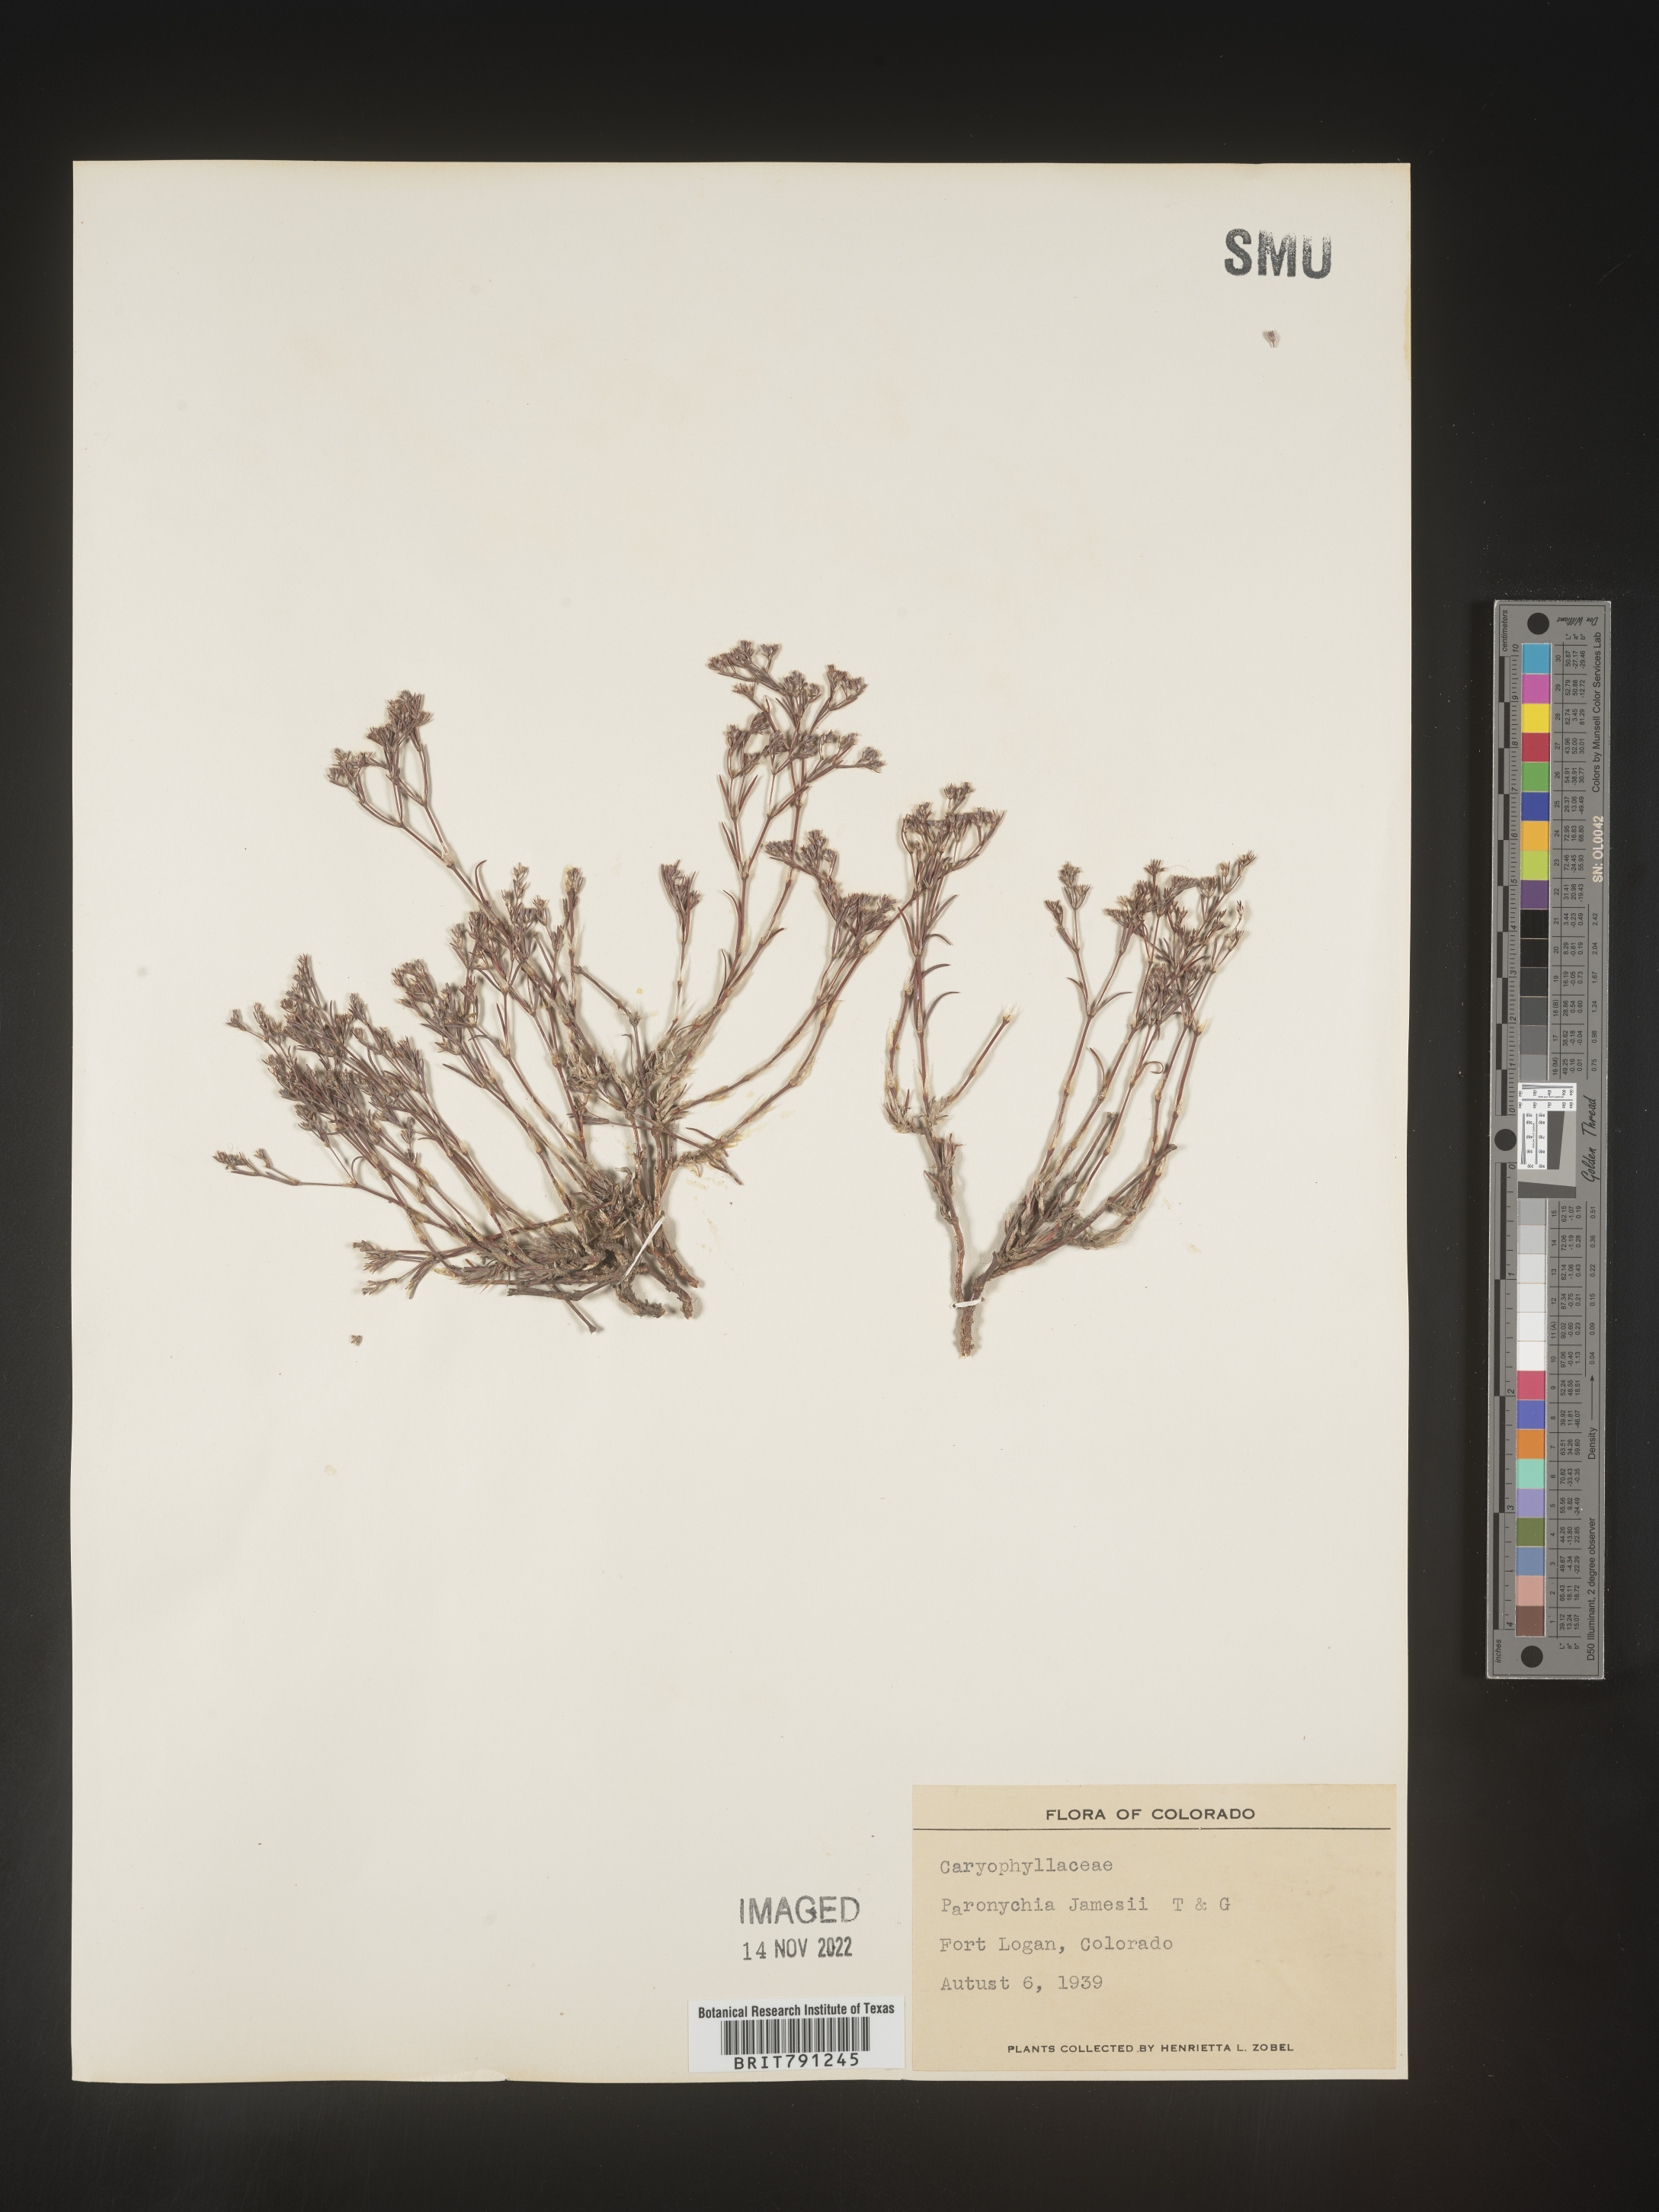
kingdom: Plantae
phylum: Tracheophyta
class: Magnoliopsida
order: Caryophyllales
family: Caryophyllaceae
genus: Paronychia
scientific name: Paronychia jamesii
